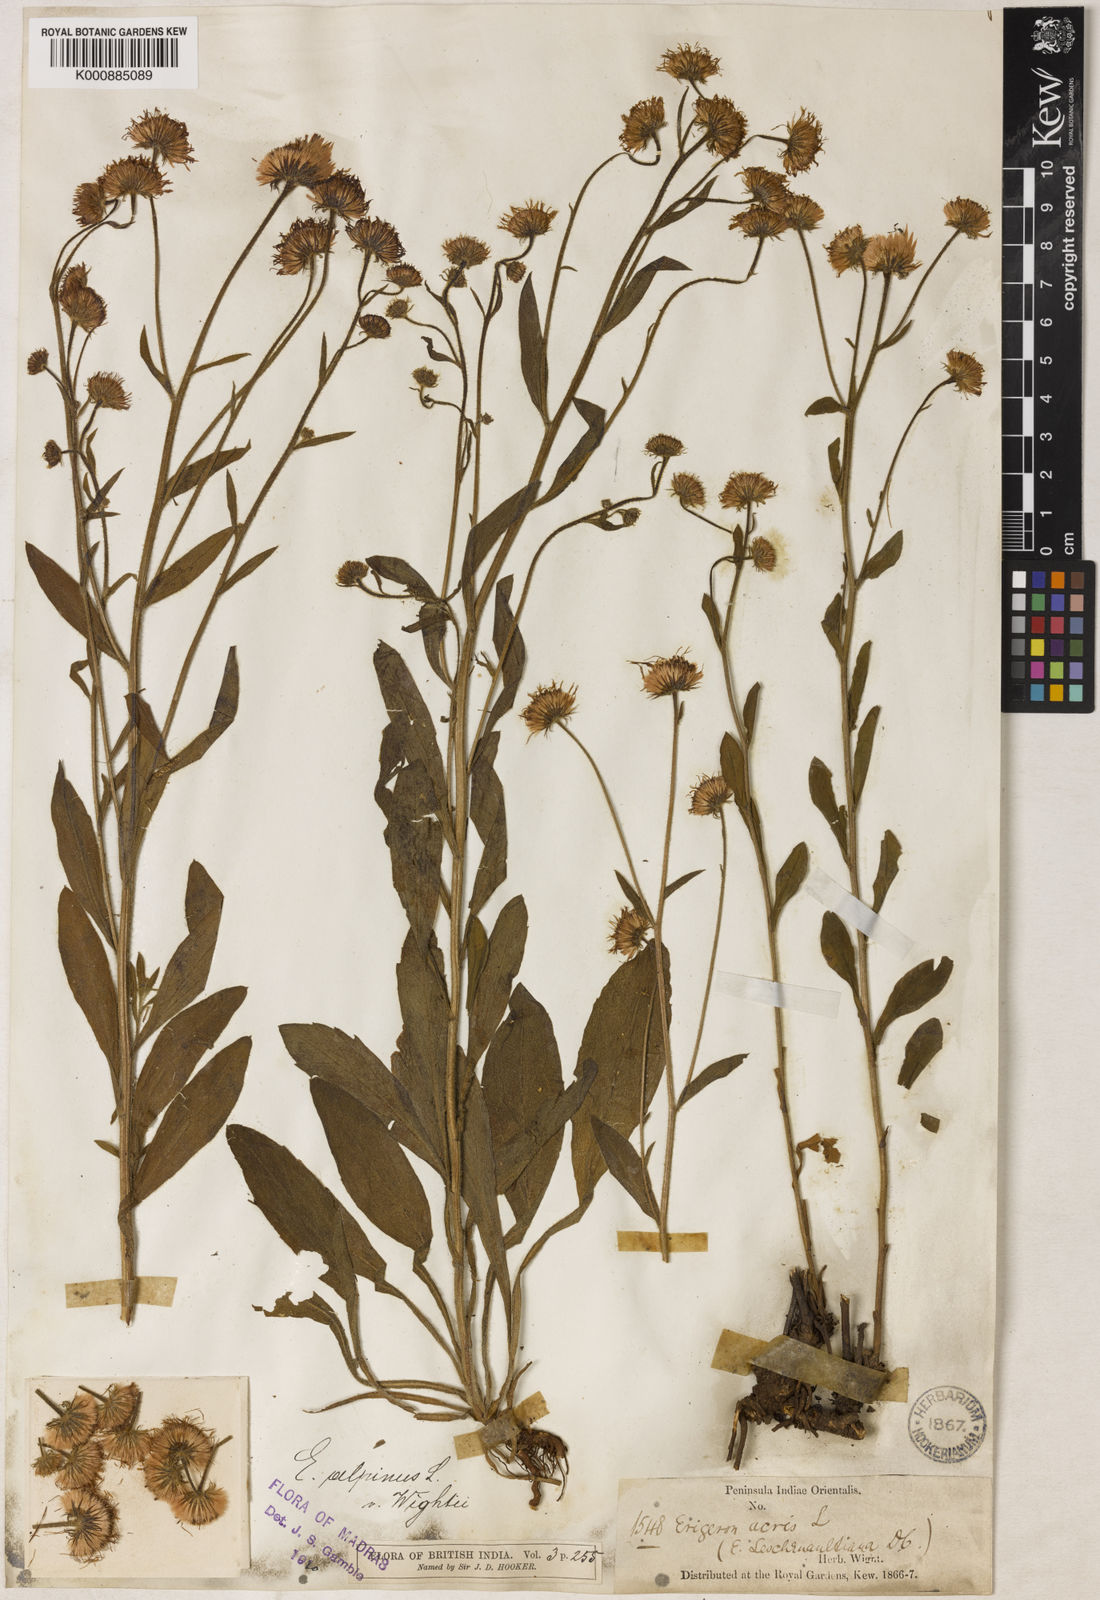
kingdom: Plantae
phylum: Tracheophyta
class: Magnoliopsida
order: Asterales
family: Asteraceae
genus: Erigeron
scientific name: Erigeron alpinus
